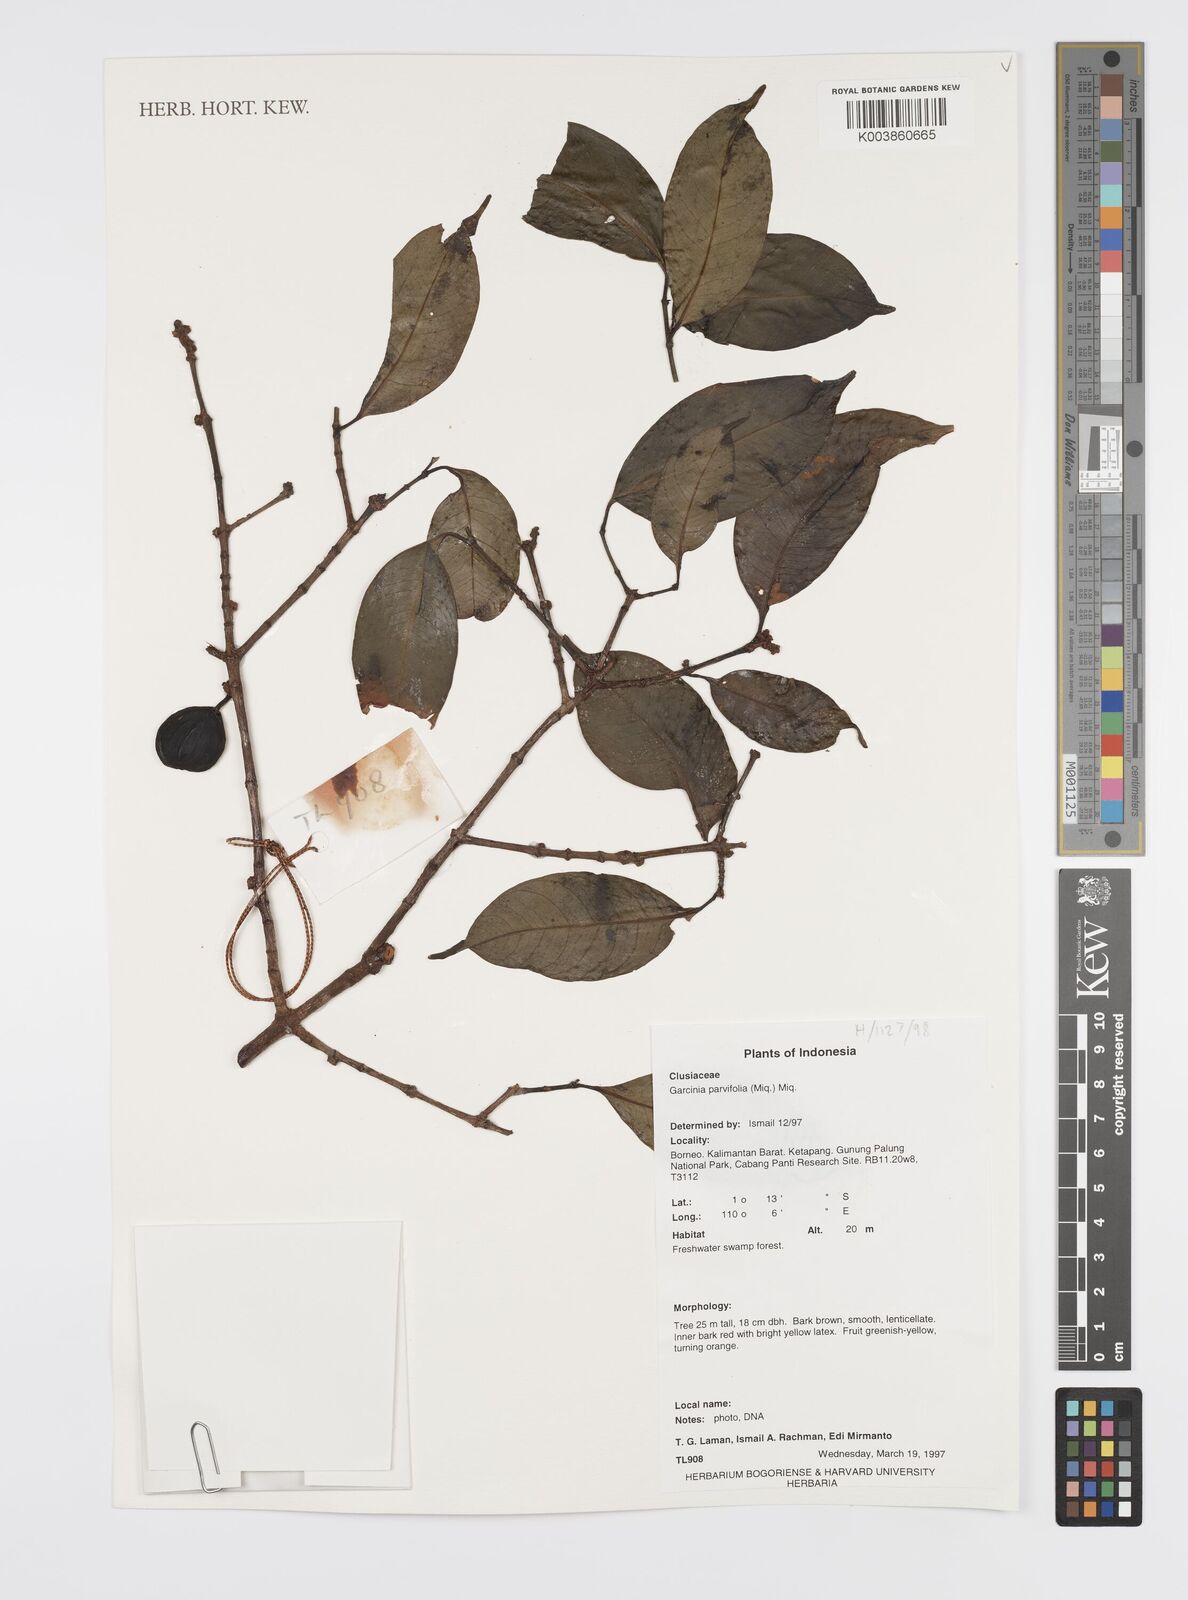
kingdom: Plantae
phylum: Tracheophyta
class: Magnoliopsida
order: Malpighiales
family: Clusiaceae
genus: Garcinia
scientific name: Garcinia parvifolia
